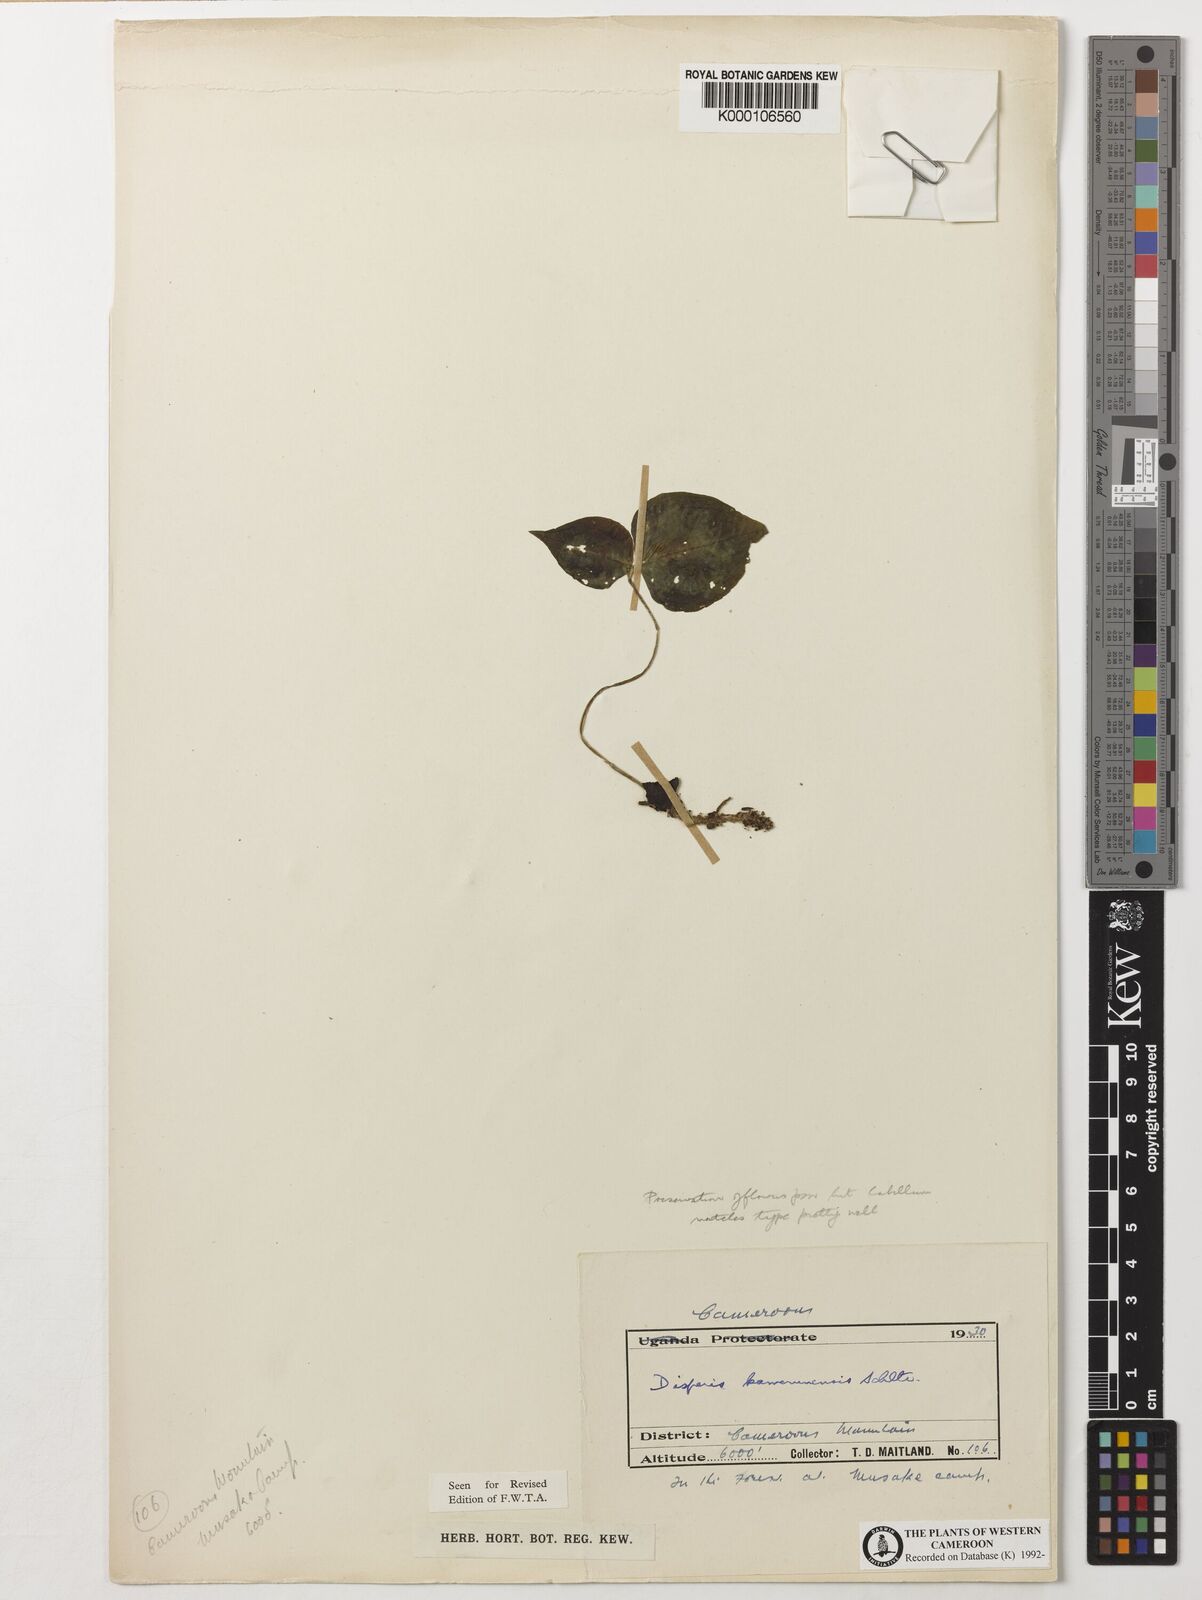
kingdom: Plantae
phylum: Tracheophyta
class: Liliopsida
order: Asparagales
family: Orchidaceae
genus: Disperis
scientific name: Disperis kamerunensis
